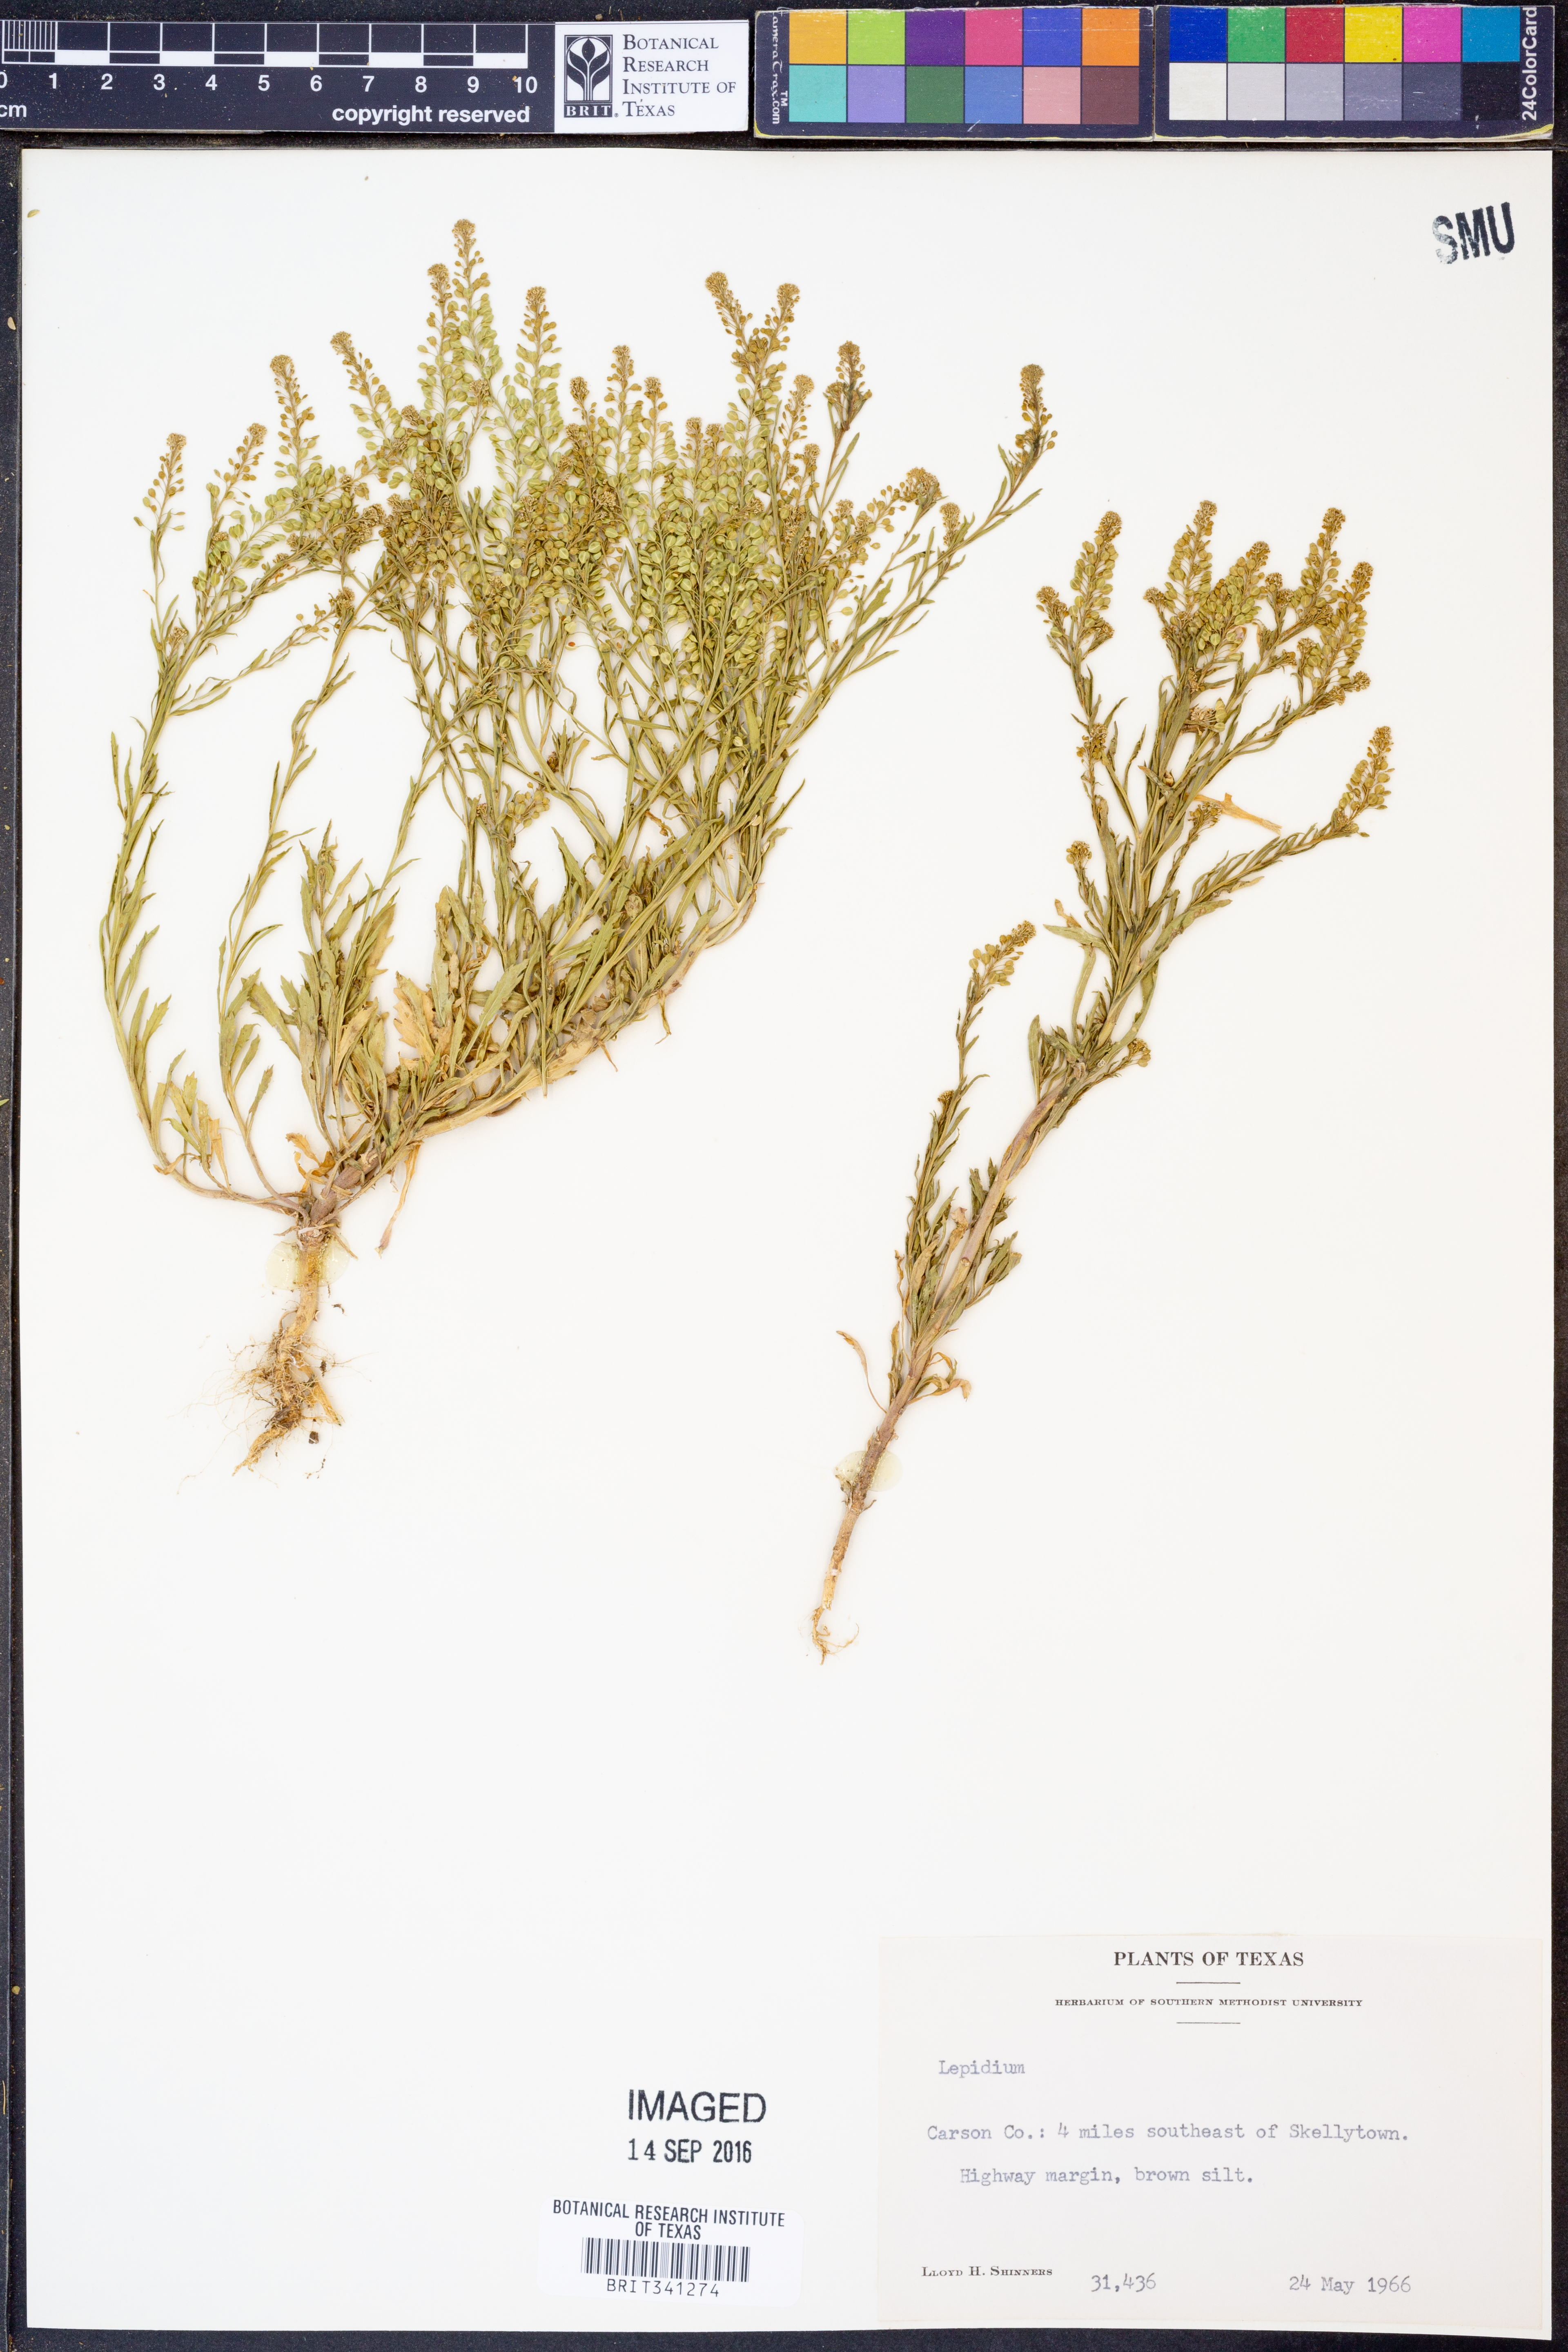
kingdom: Plantae
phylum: Tracheophyta
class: Magnoliopsida
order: Brassicales
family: Brassicaceae
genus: Lepidium
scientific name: Lepidium
